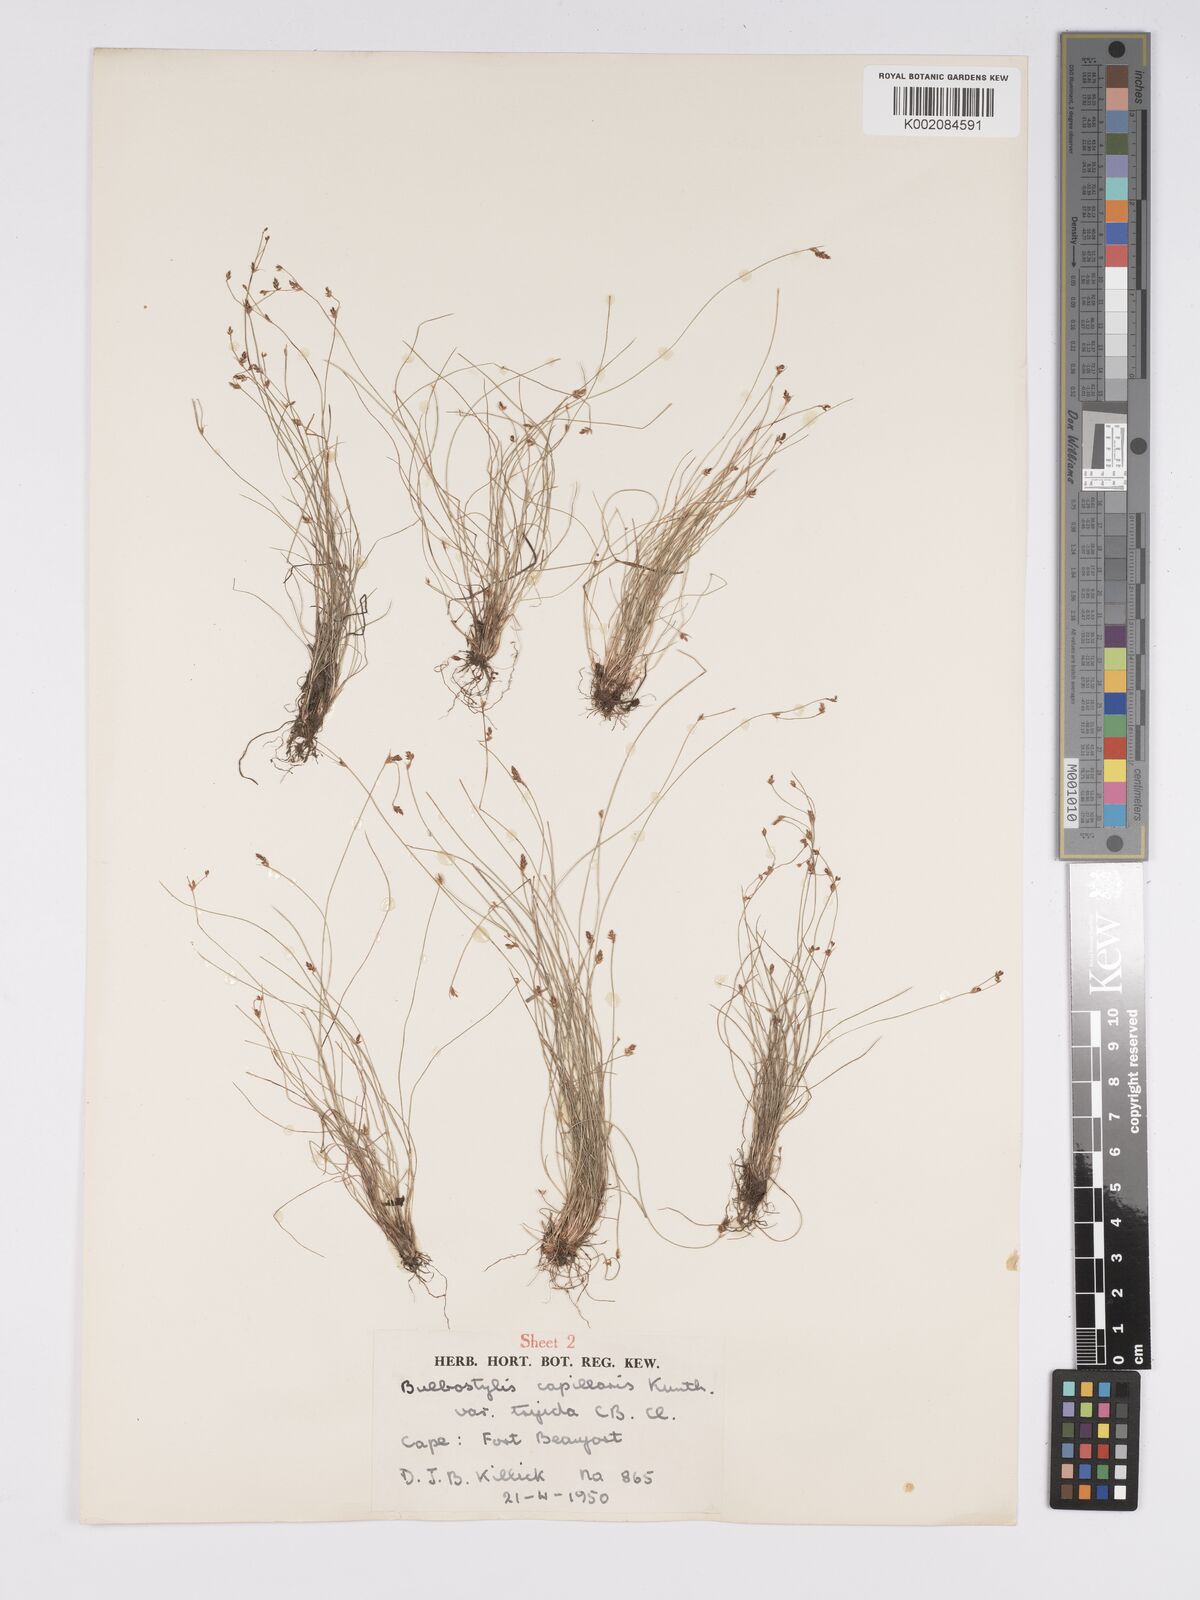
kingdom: Plantae
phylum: Tracheophyta
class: Liliopsida
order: Poales
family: Cyperaceae
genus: Bulbostylis
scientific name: Bulbostylis truncata
